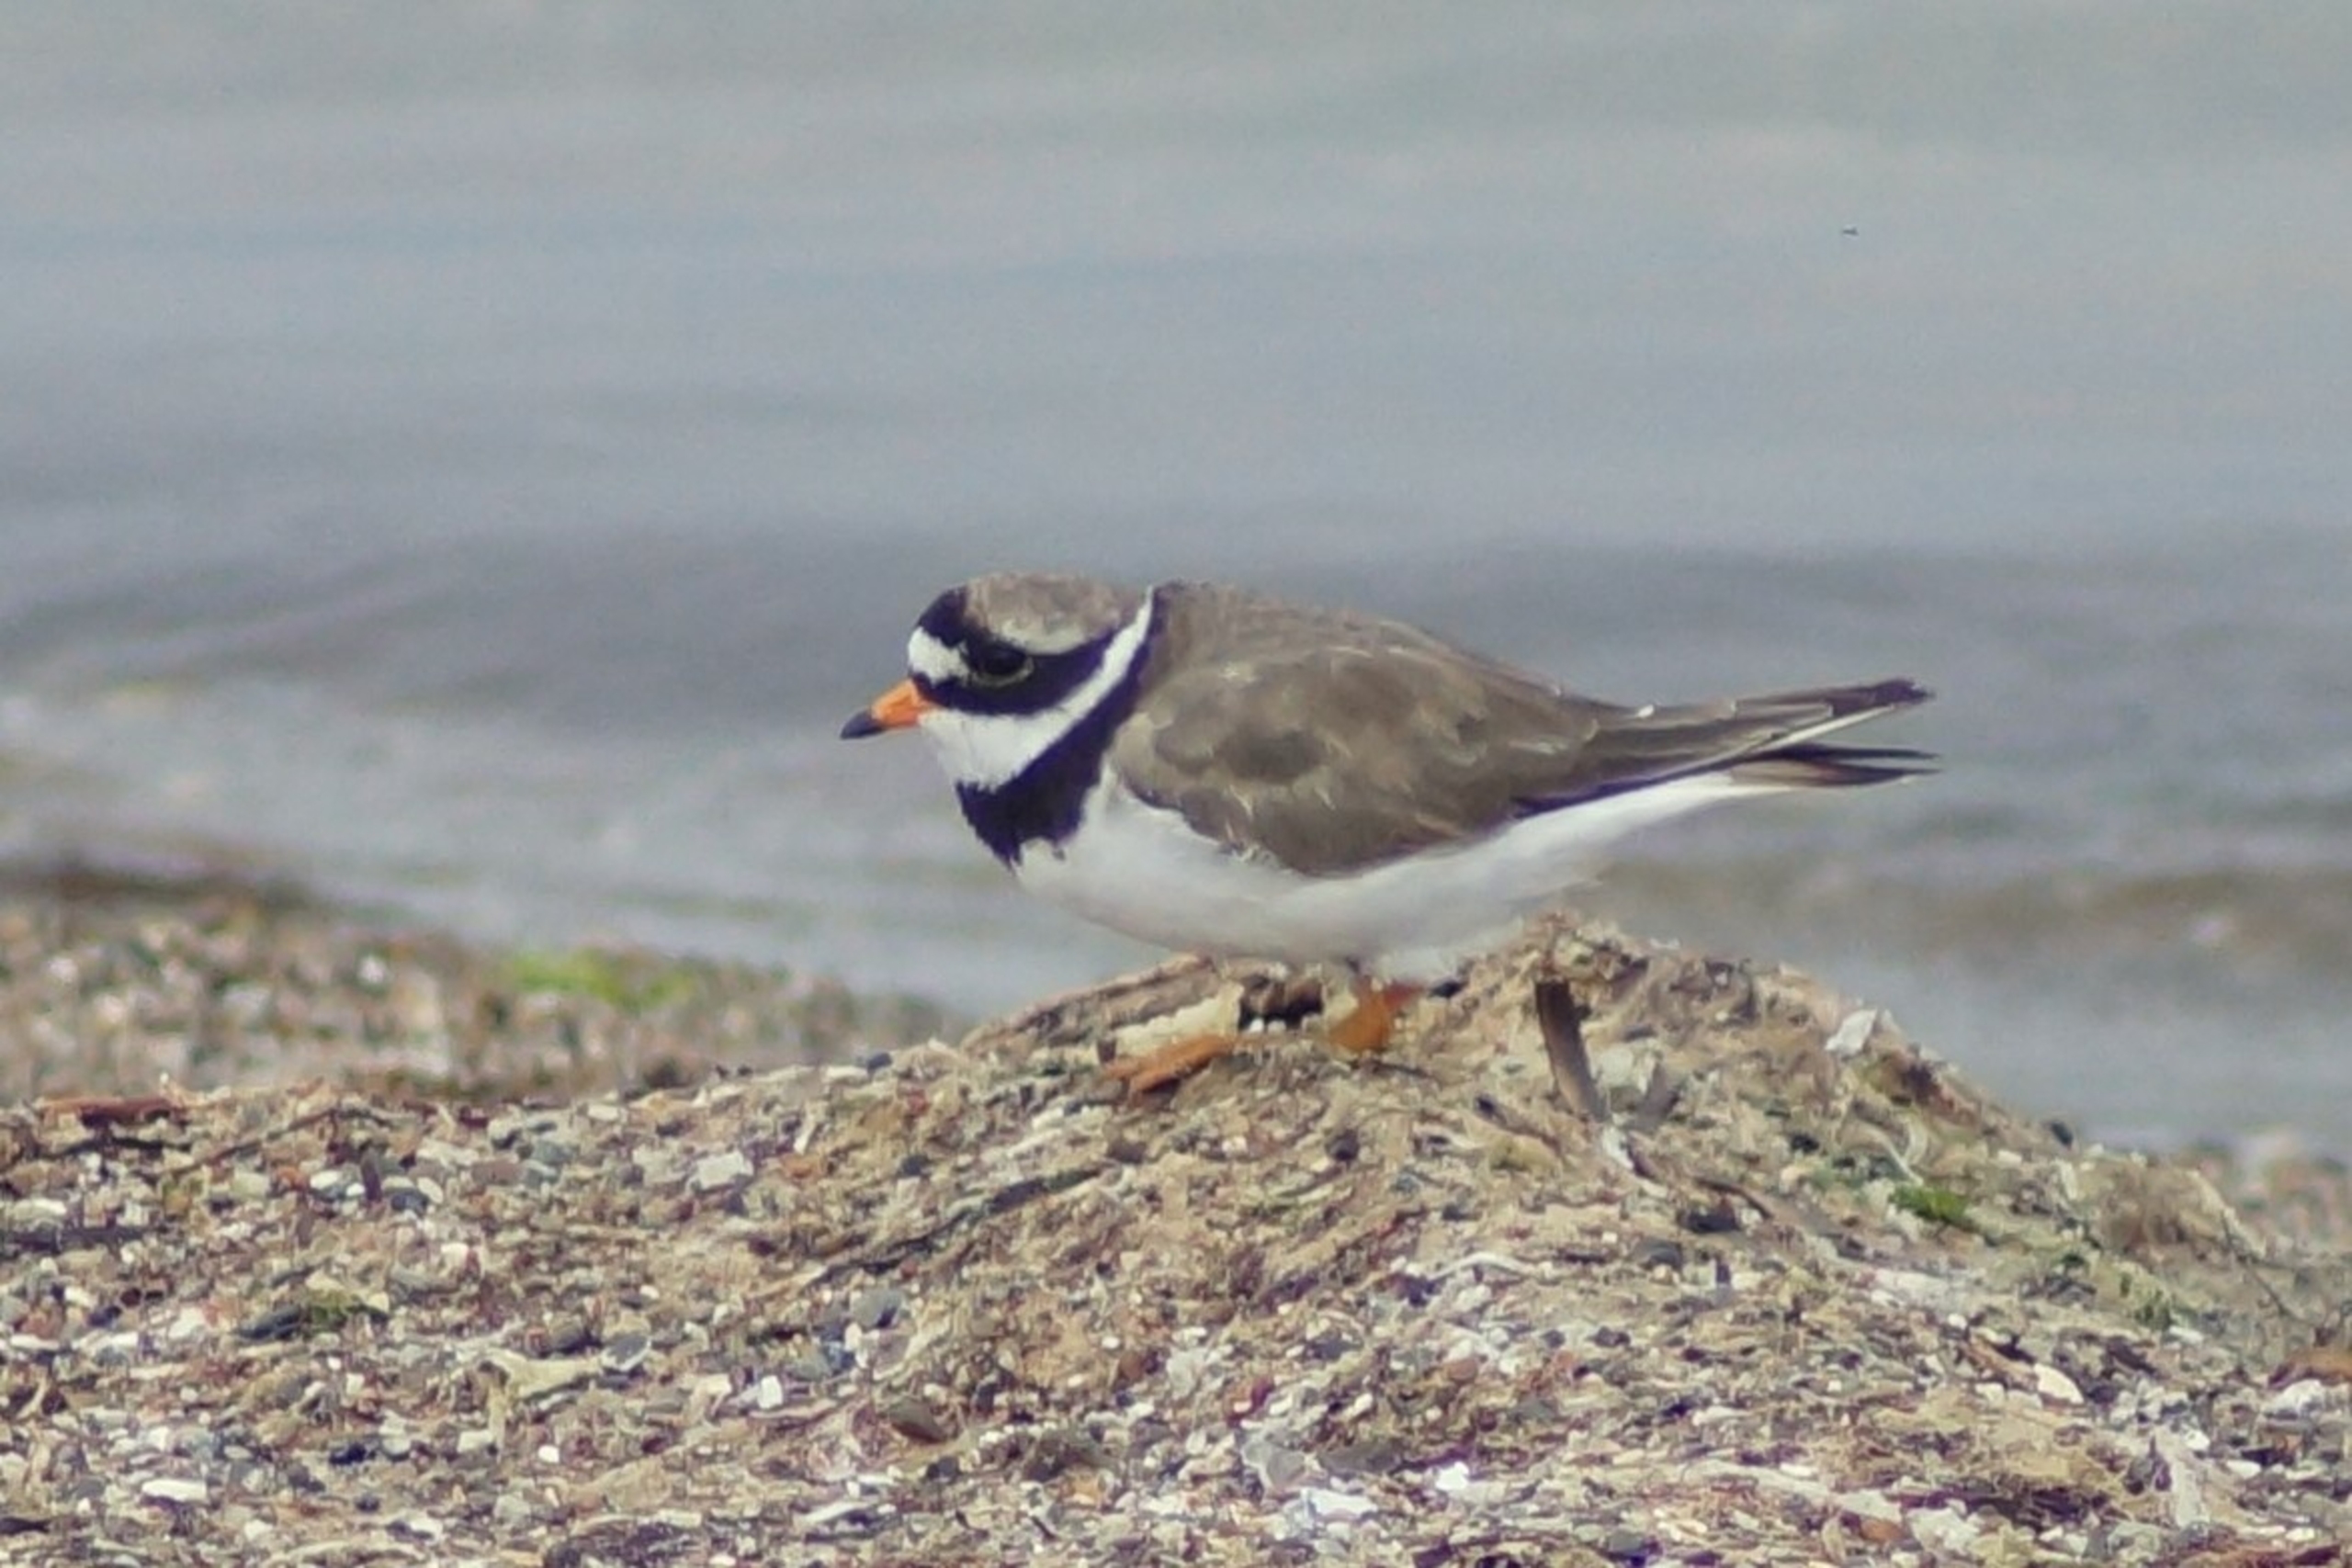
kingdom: Animalia
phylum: Chordata
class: Aves
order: Charadriiformes
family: Charadriidae
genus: Charadrius
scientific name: Charadrius hiaticula
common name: Stor præstekrave
